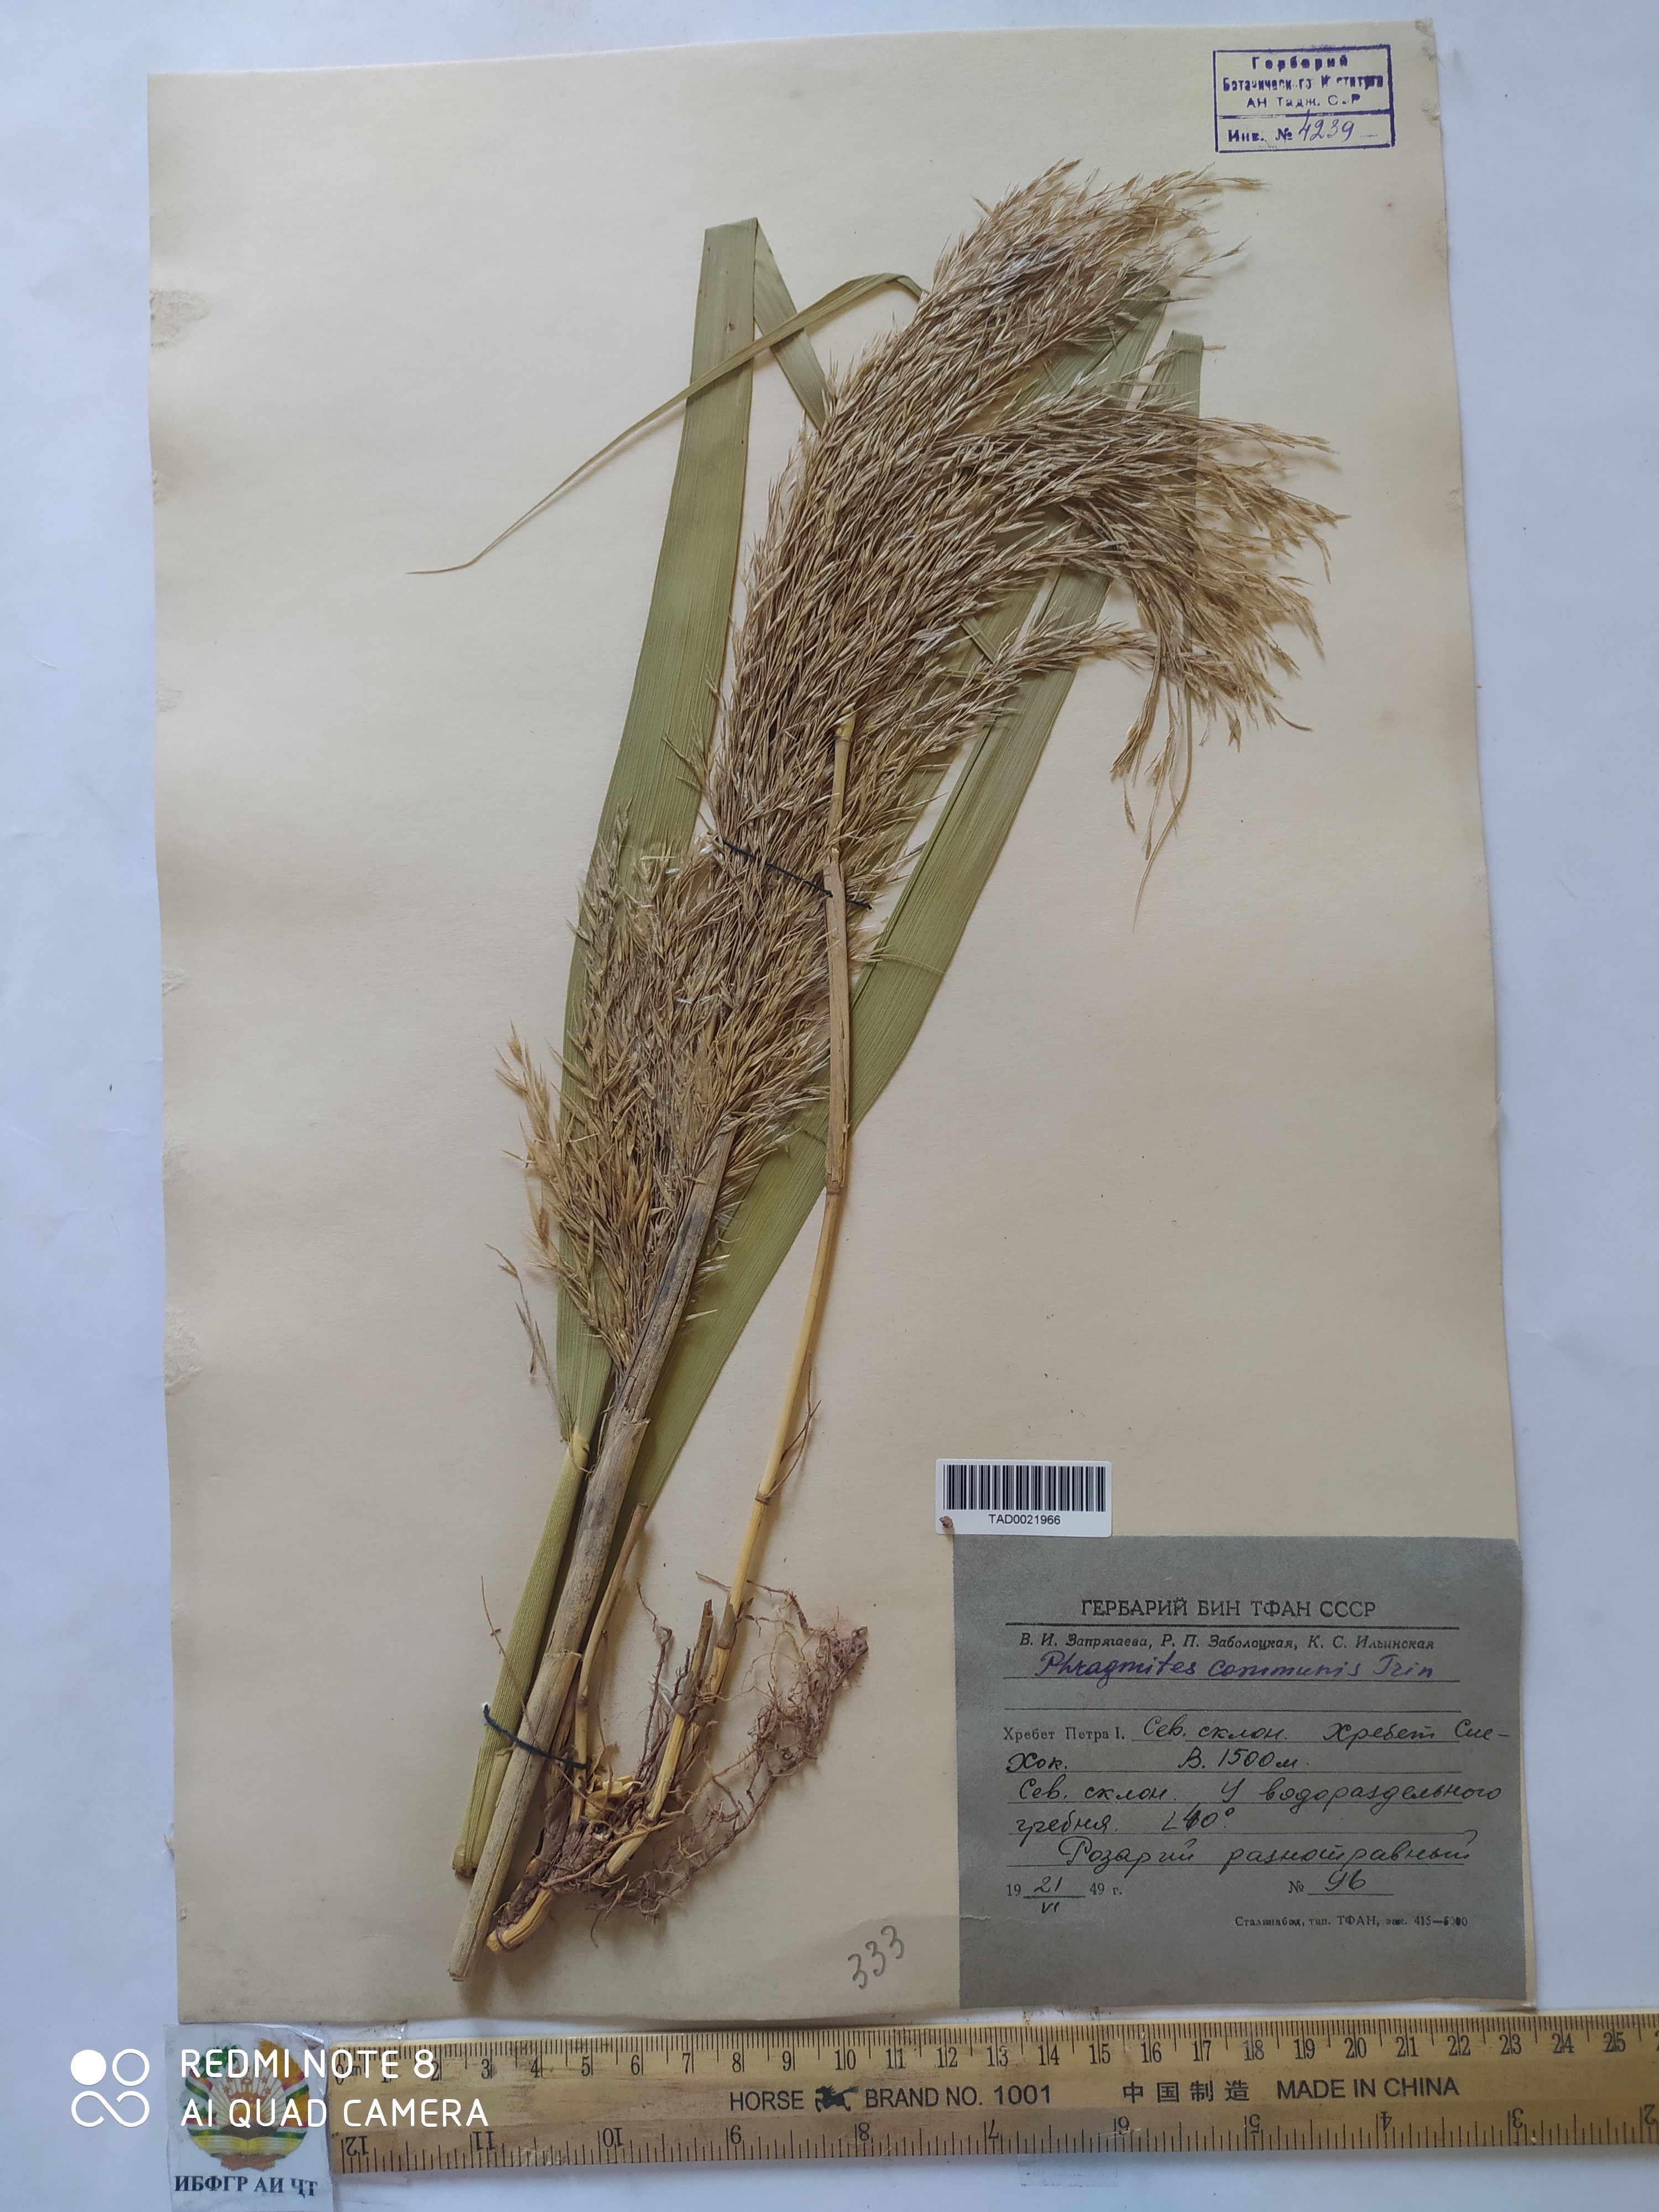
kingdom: Plantae
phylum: Tracheophyta
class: Liliopsida
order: Poales
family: Poaceae
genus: Phragmites
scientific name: Phragmites australis
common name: Common reed
